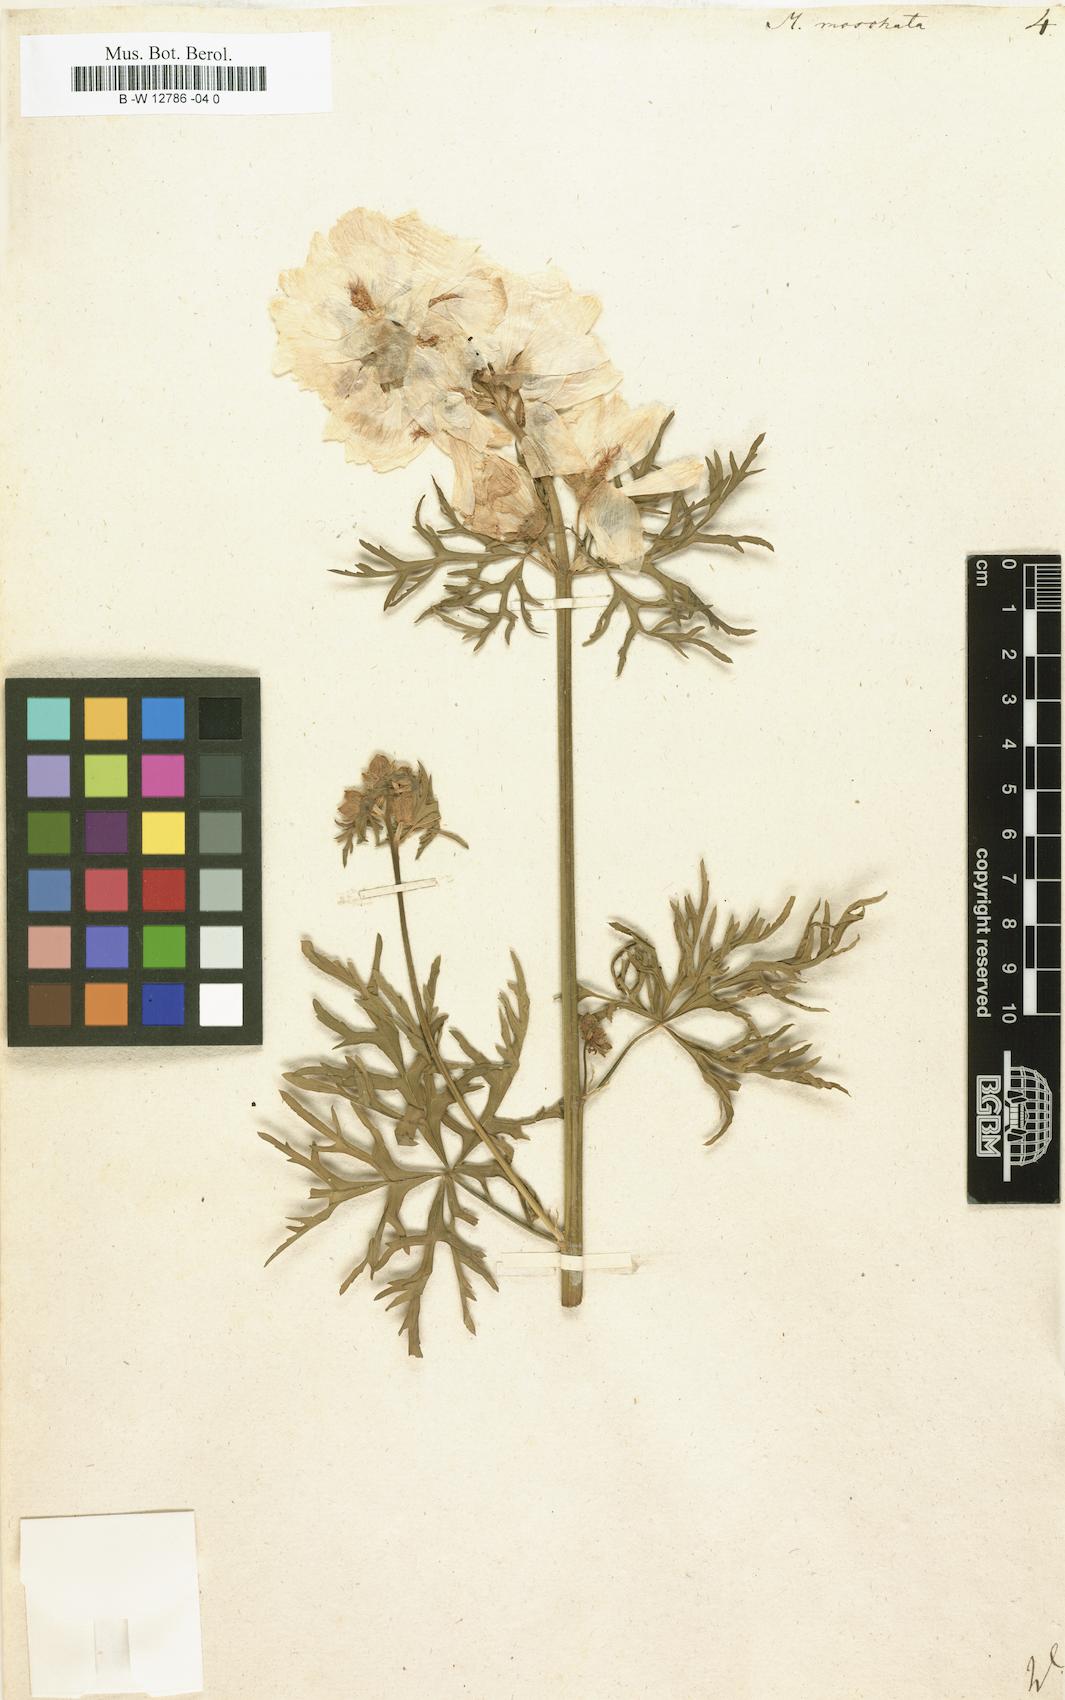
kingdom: Plantae
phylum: Tracheophyta
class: Magnoliopsida
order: Malvales
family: Malvaceae
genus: Malva
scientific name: Malva
